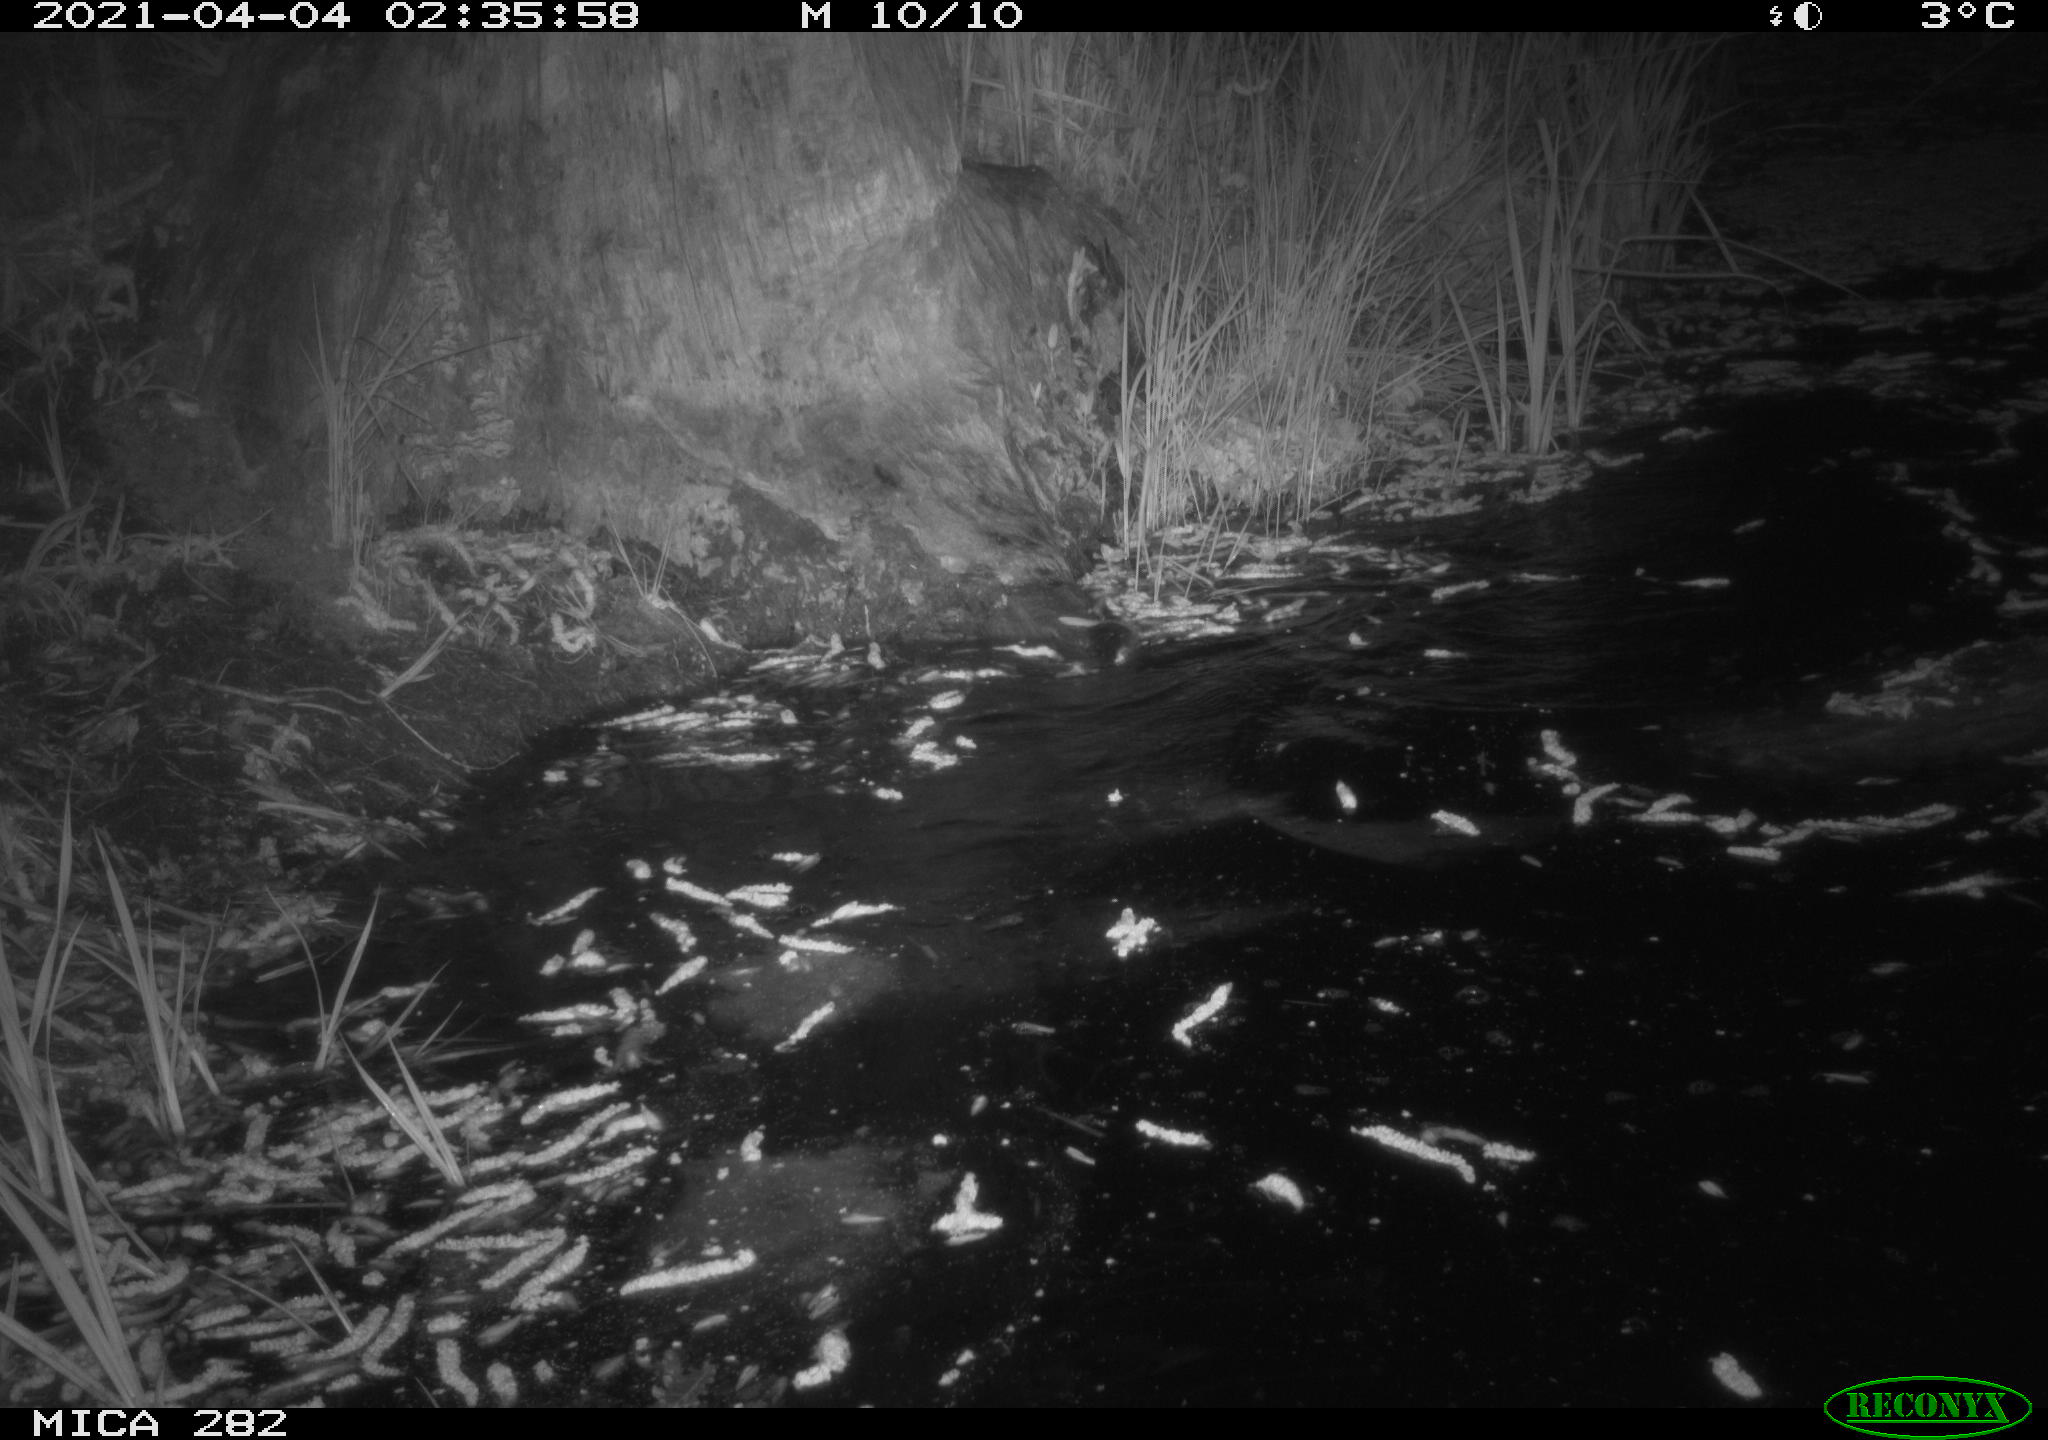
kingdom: Animalia
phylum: Chordata
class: Mammalia
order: Rodentia
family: Castoridae
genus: Castor
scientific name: Castor fiber
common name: Eurasian beaver
